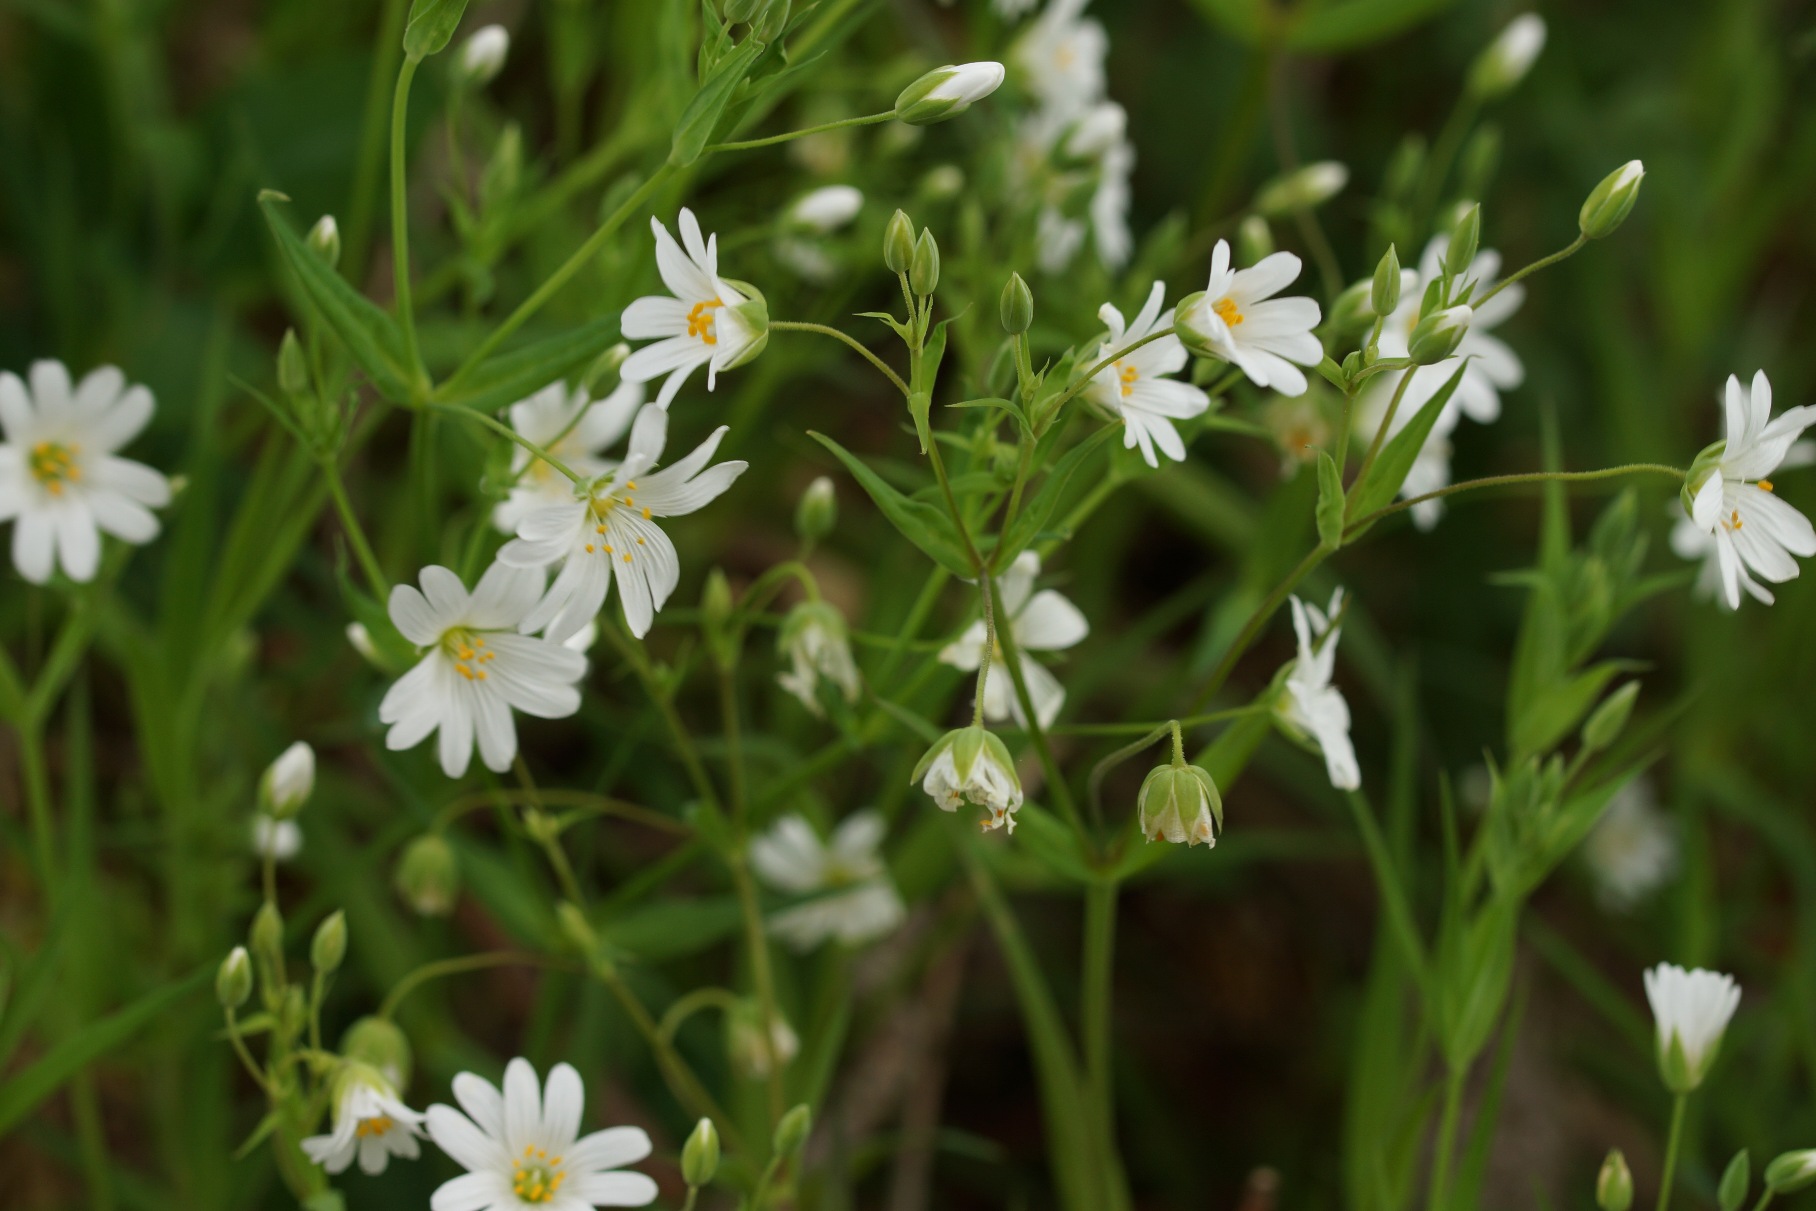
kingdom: Plantae
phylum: Tracheophyta
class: Magnoliopsida
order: Caryophyllales
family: Caryophyllaceae
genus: Rabelera
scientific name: Rabelera holostea
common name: Stor fladstjerne
